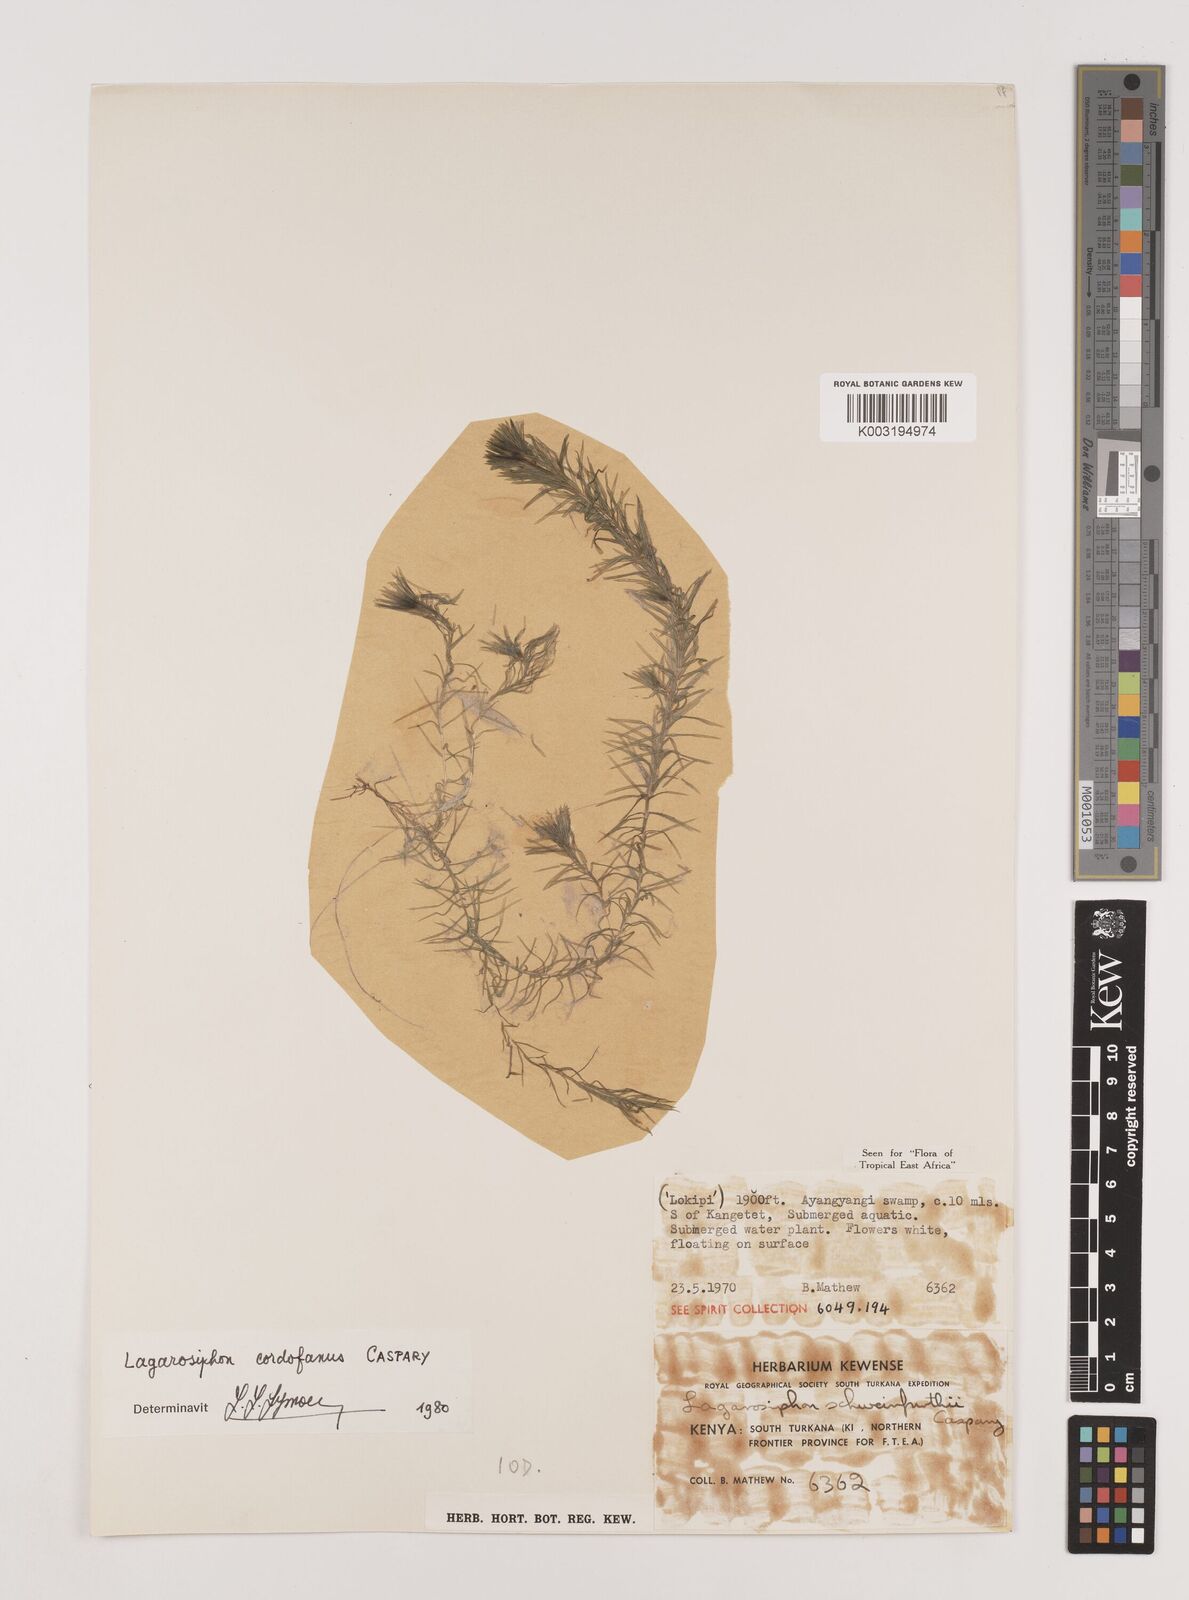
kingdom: Plantae
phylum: Tracheophyta
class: Liliopsida
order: Alismatales
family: Hydrocharitaceae
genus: Lagarosiphon
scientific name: Lagarosiphon cordofanus
